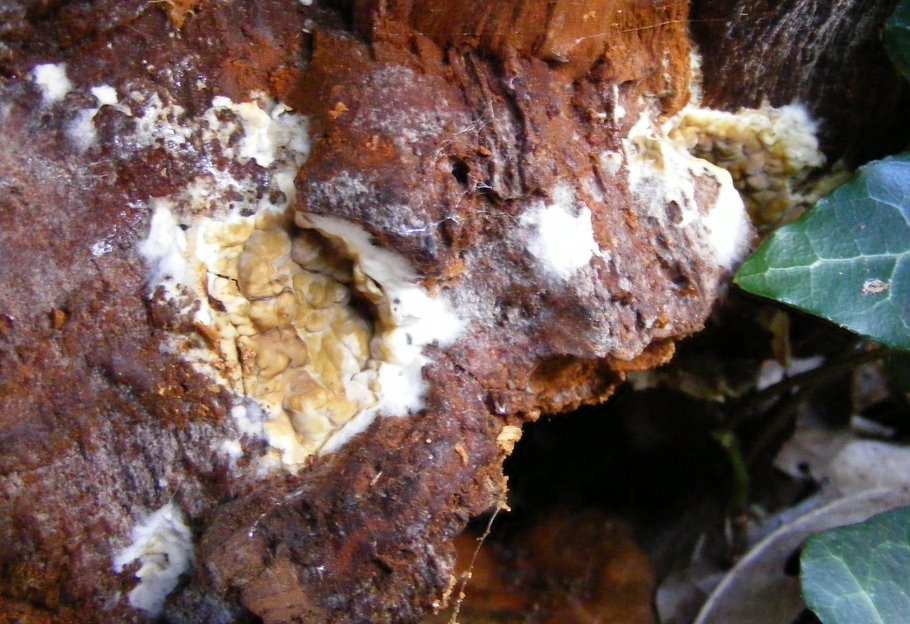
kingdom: Fungi
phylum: Basidiomycota
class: Agaricomycetes
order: Boletales
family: Coniophoraceae
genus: Coniophora
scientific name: Coniophora puteana
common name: gul tømmersvamp
